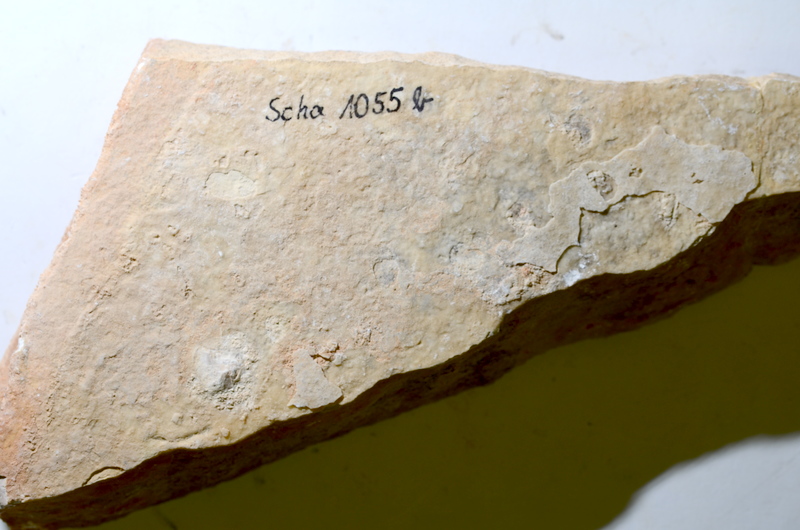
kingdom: Animalia
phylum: Chordata
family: Ascalaboidae
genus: Tharsis
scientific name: Tharsis dubius
